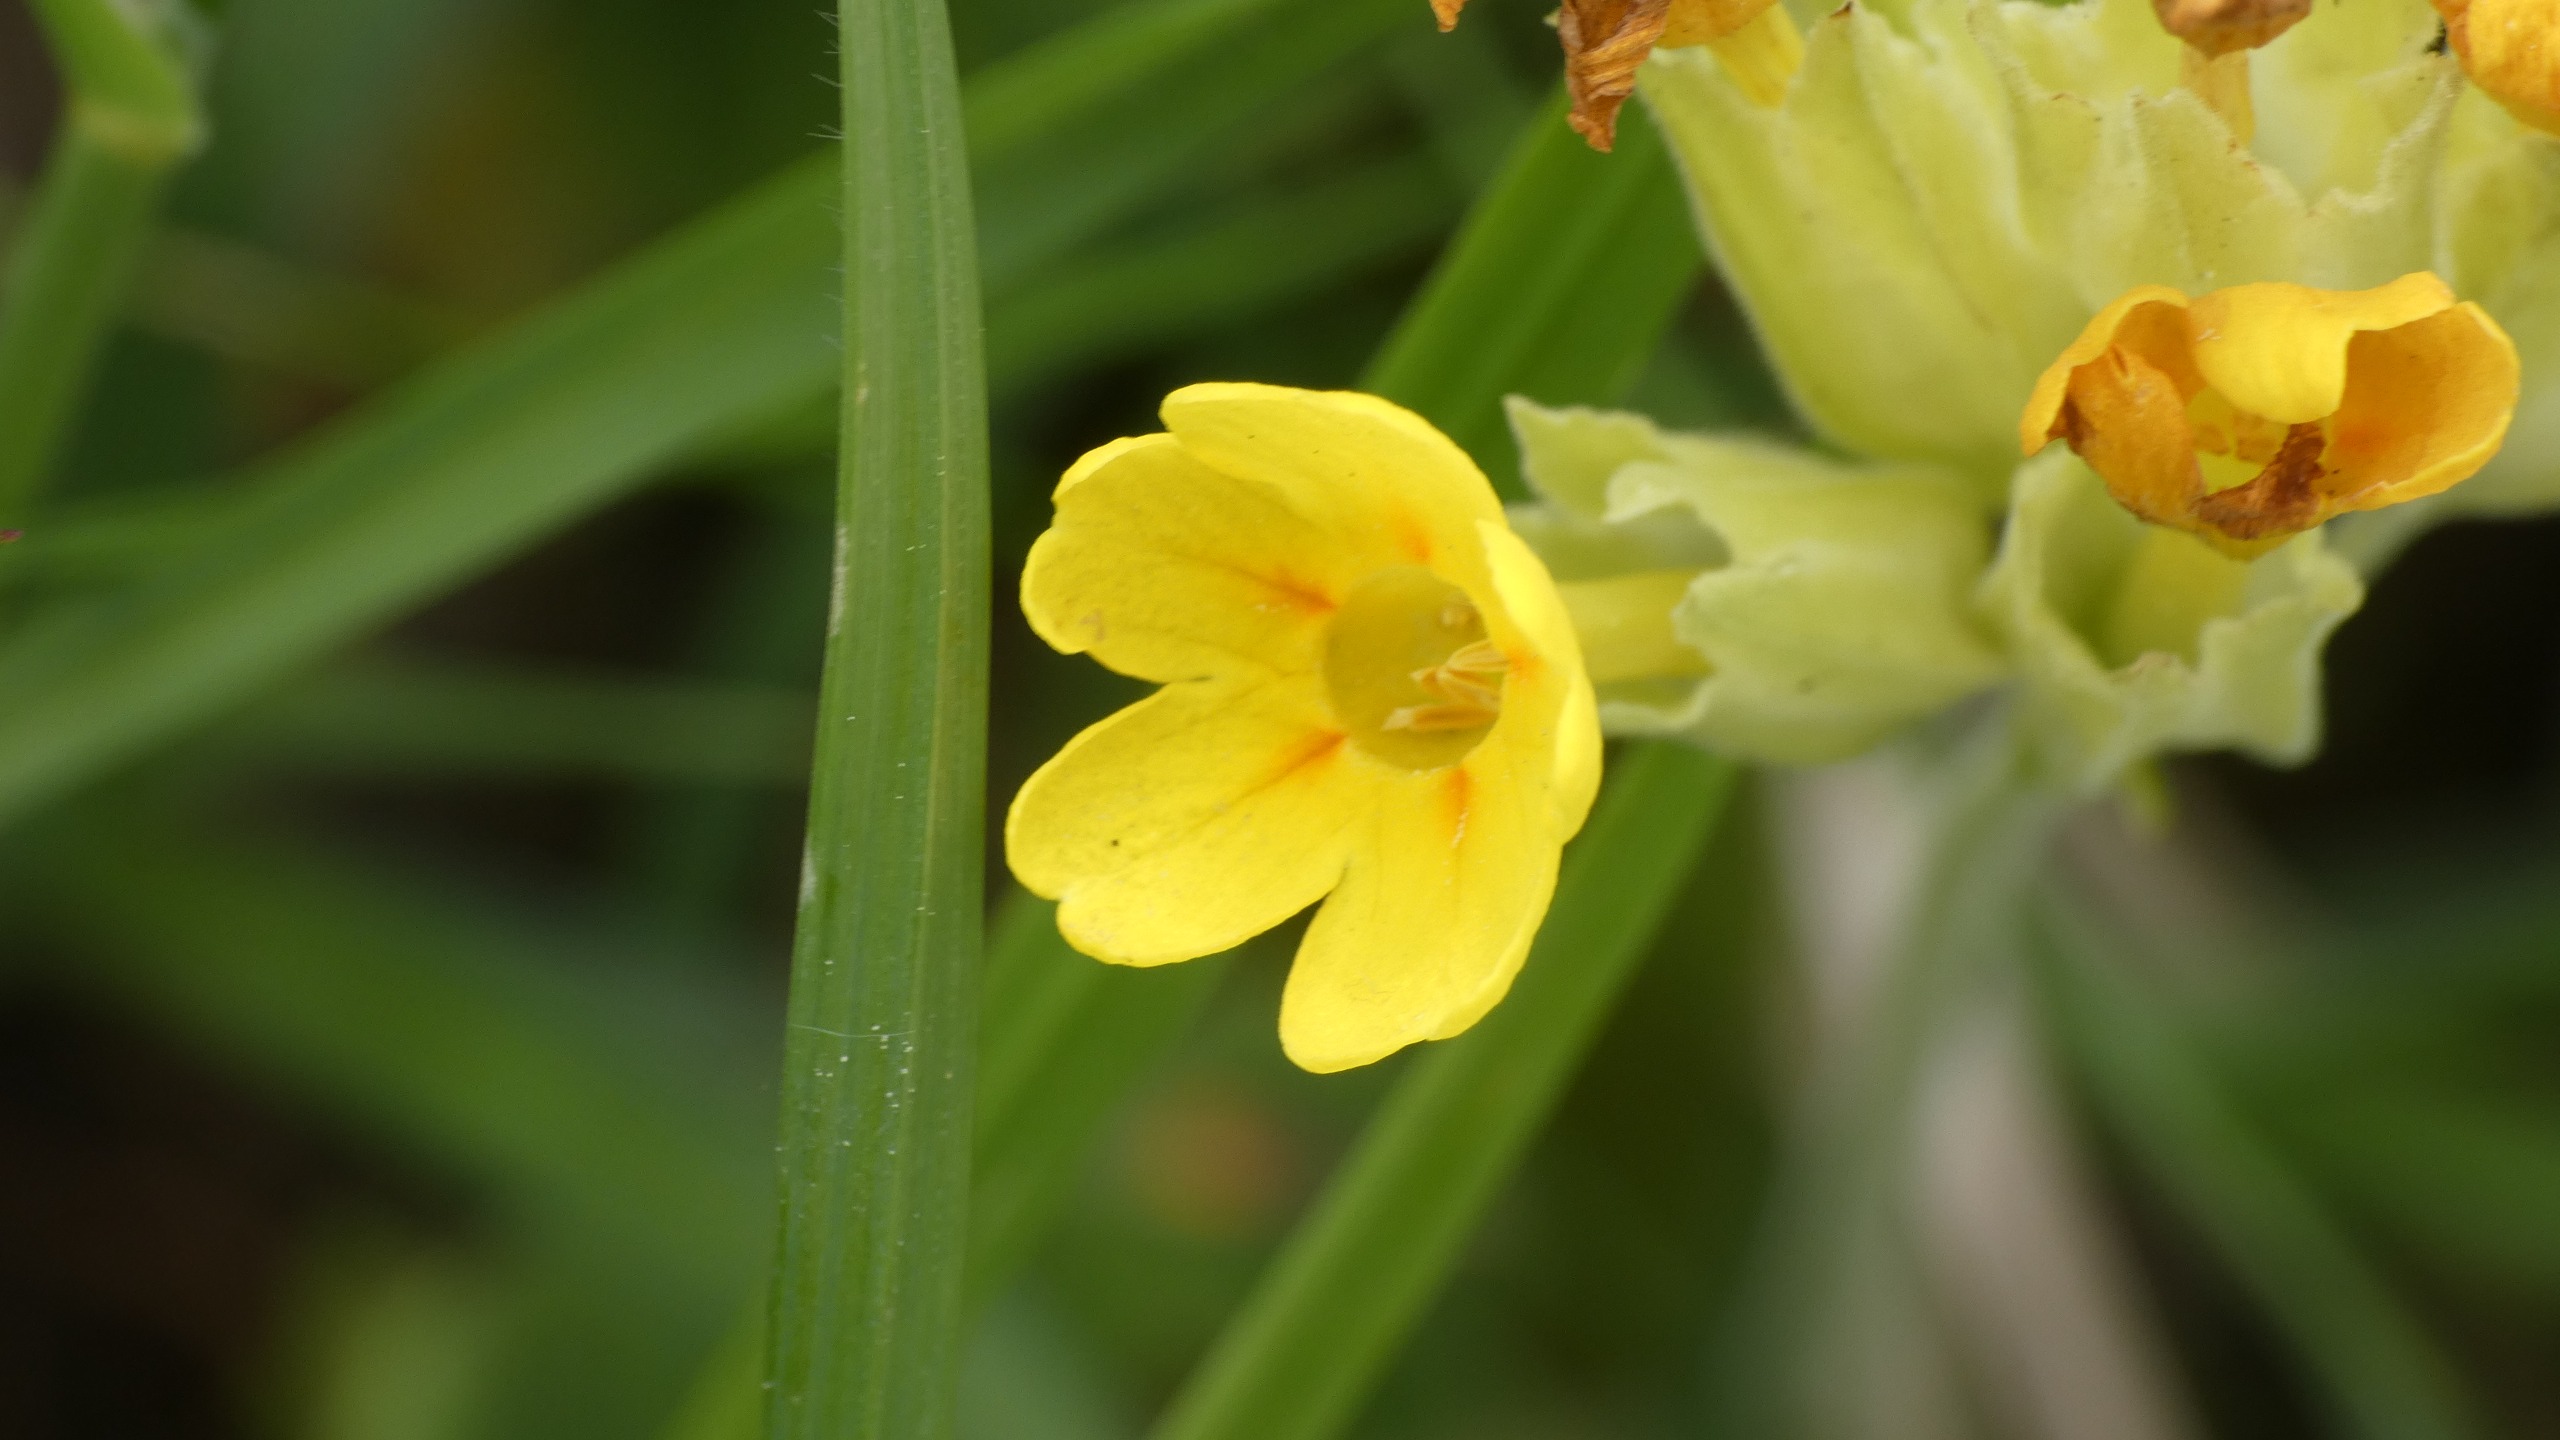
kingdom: Plantae
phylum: Tracheophyta
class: Magnoliopsida
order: Ericales
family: Primulaceae
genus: Primula
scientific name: Primula veris
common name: Hulkravet kodriver
